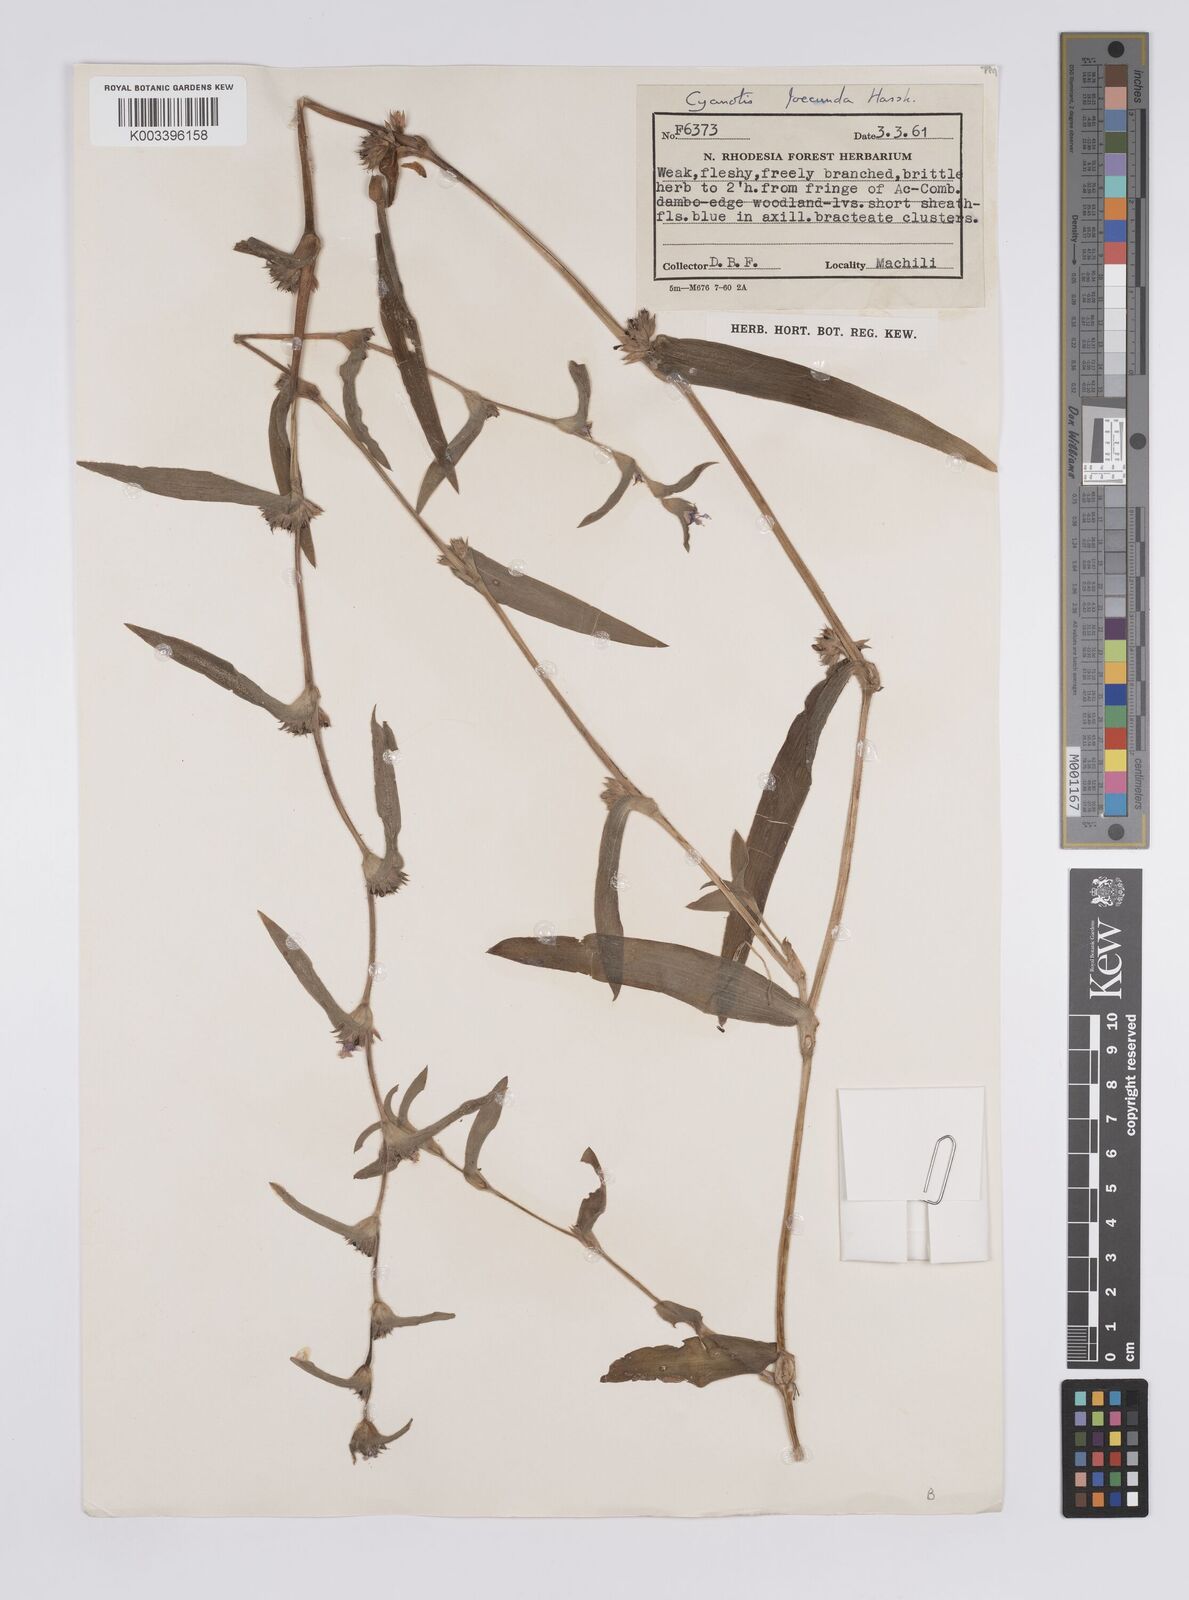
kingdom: Plantae
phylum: Tracheophyta
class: Liliopsida
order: Commelinales
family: Commelinaceae
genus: Cyanotis
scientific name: Cyanotis foecunda
